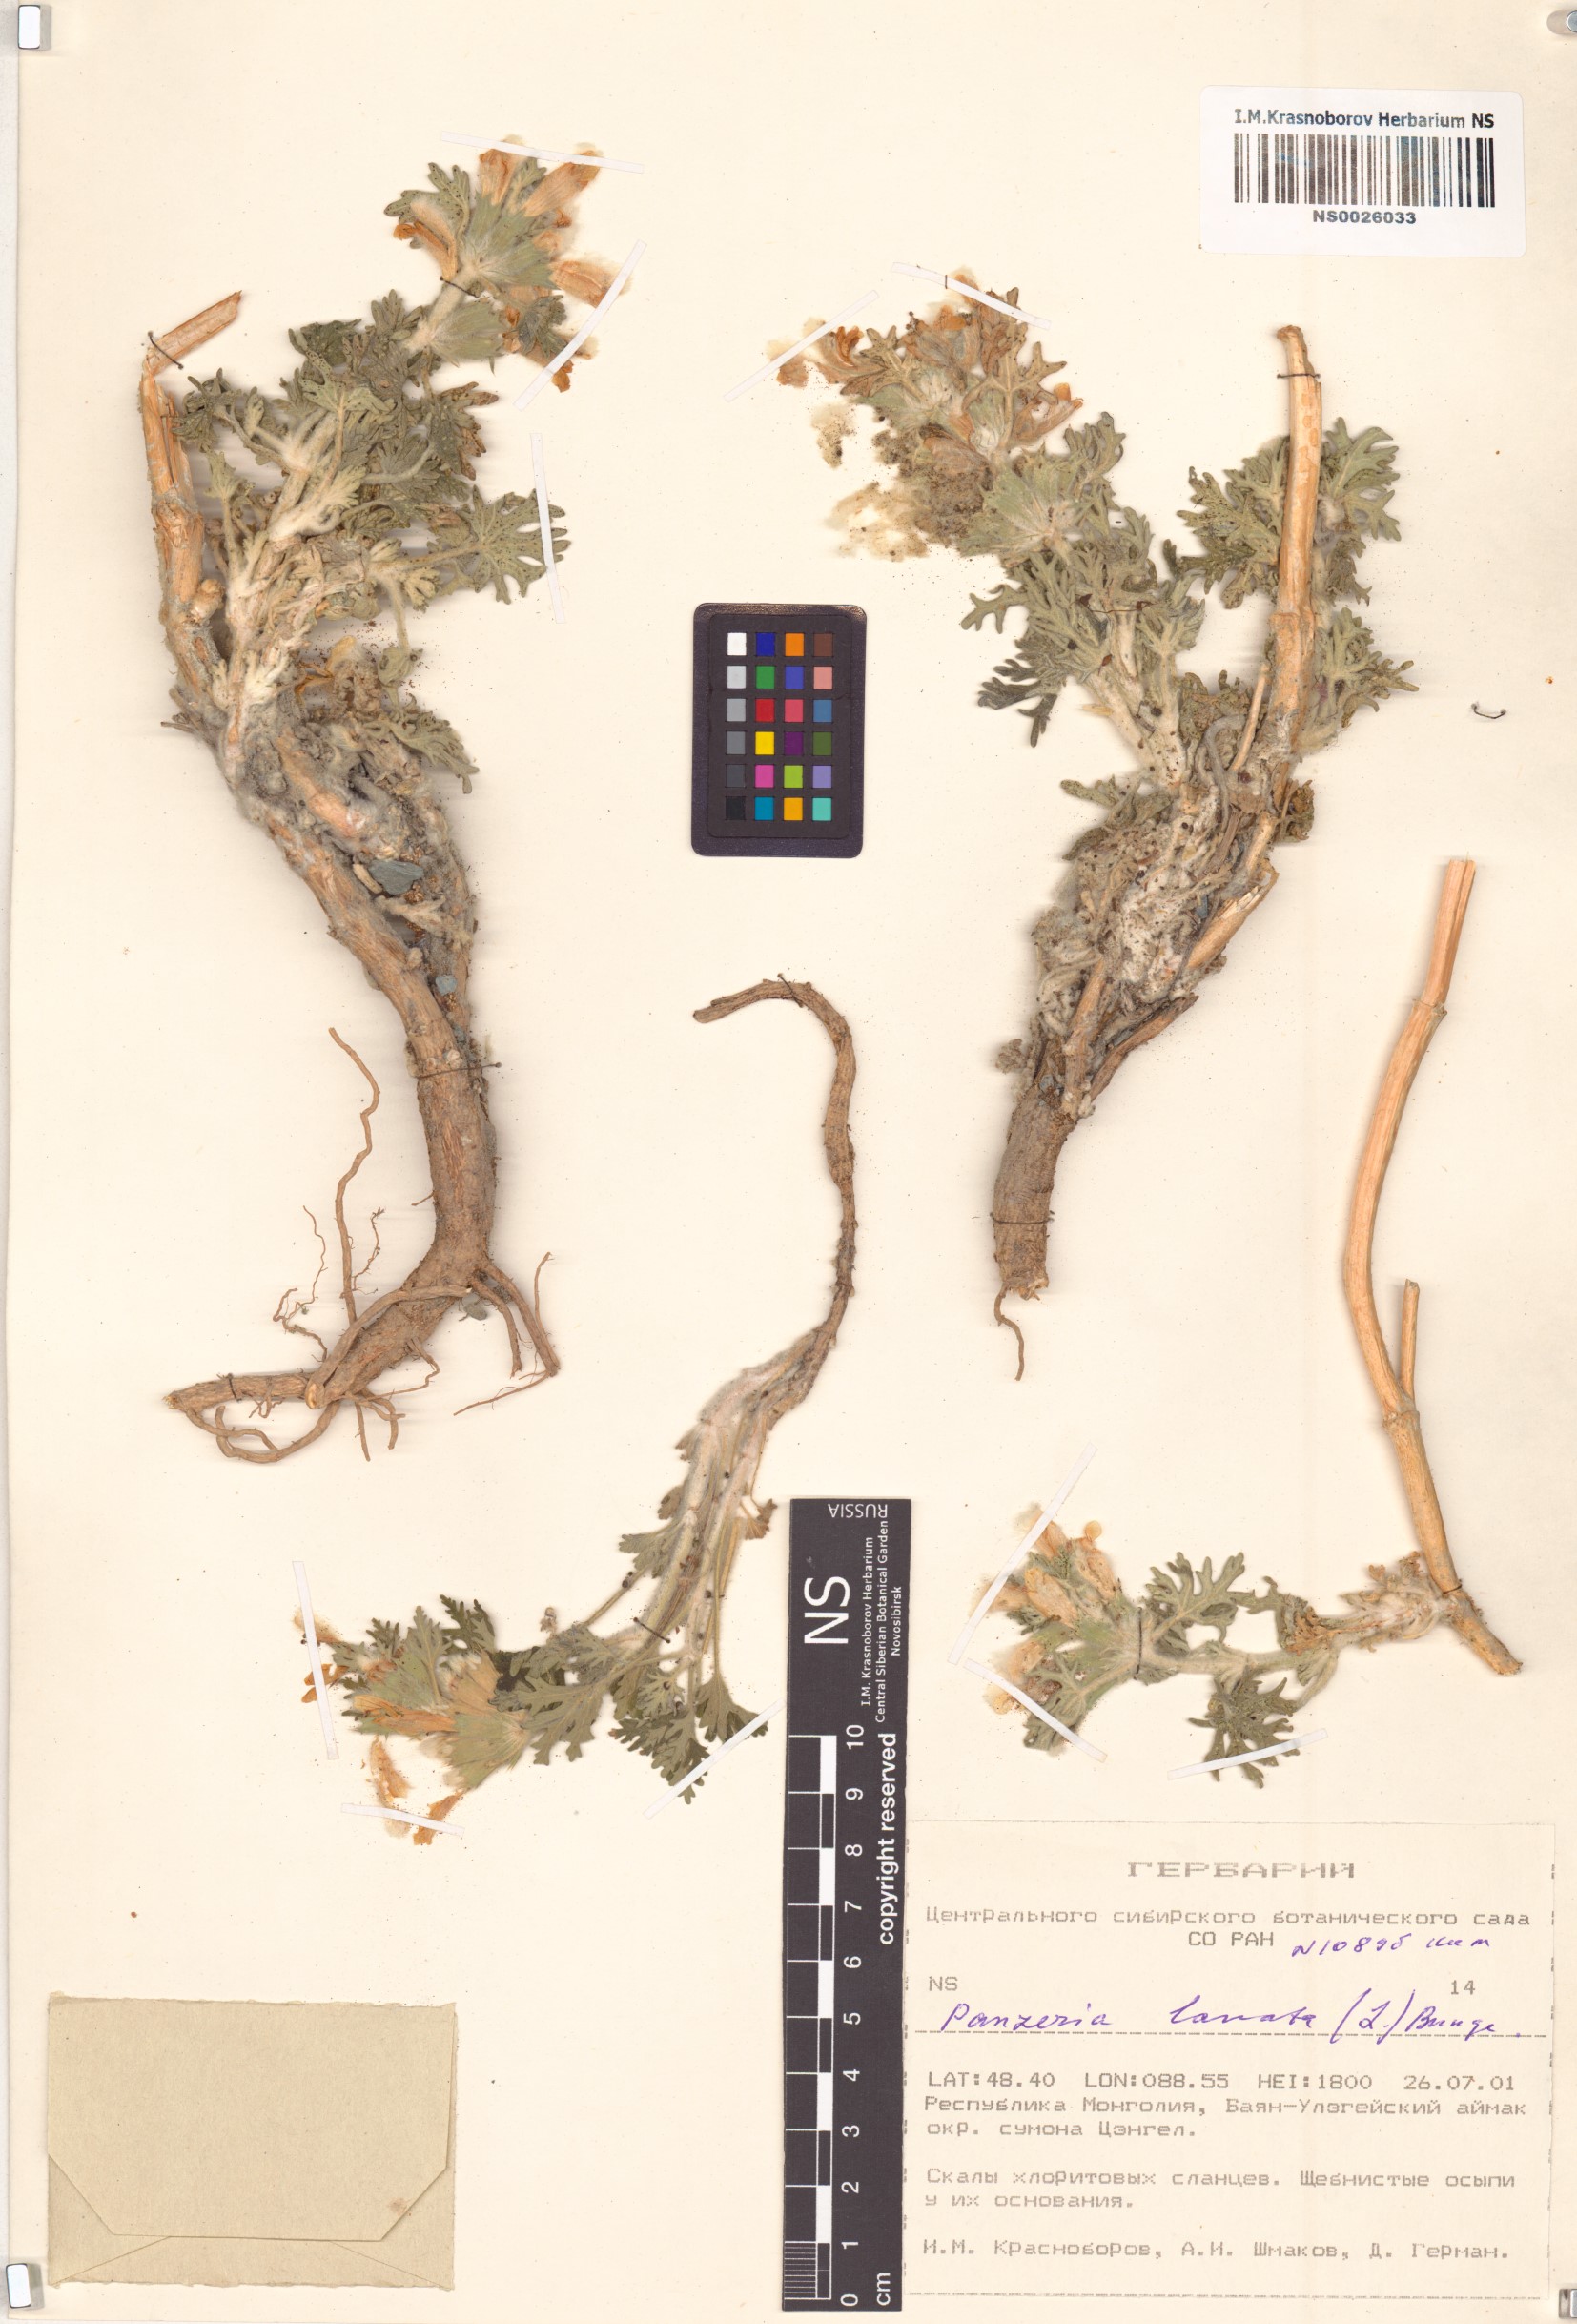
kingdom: Plantae
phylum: Tracheophyta
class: Magnoliopsida
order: Lamiales
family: Lamiaceae
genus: Panzerina
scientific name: Panzerina lanata
